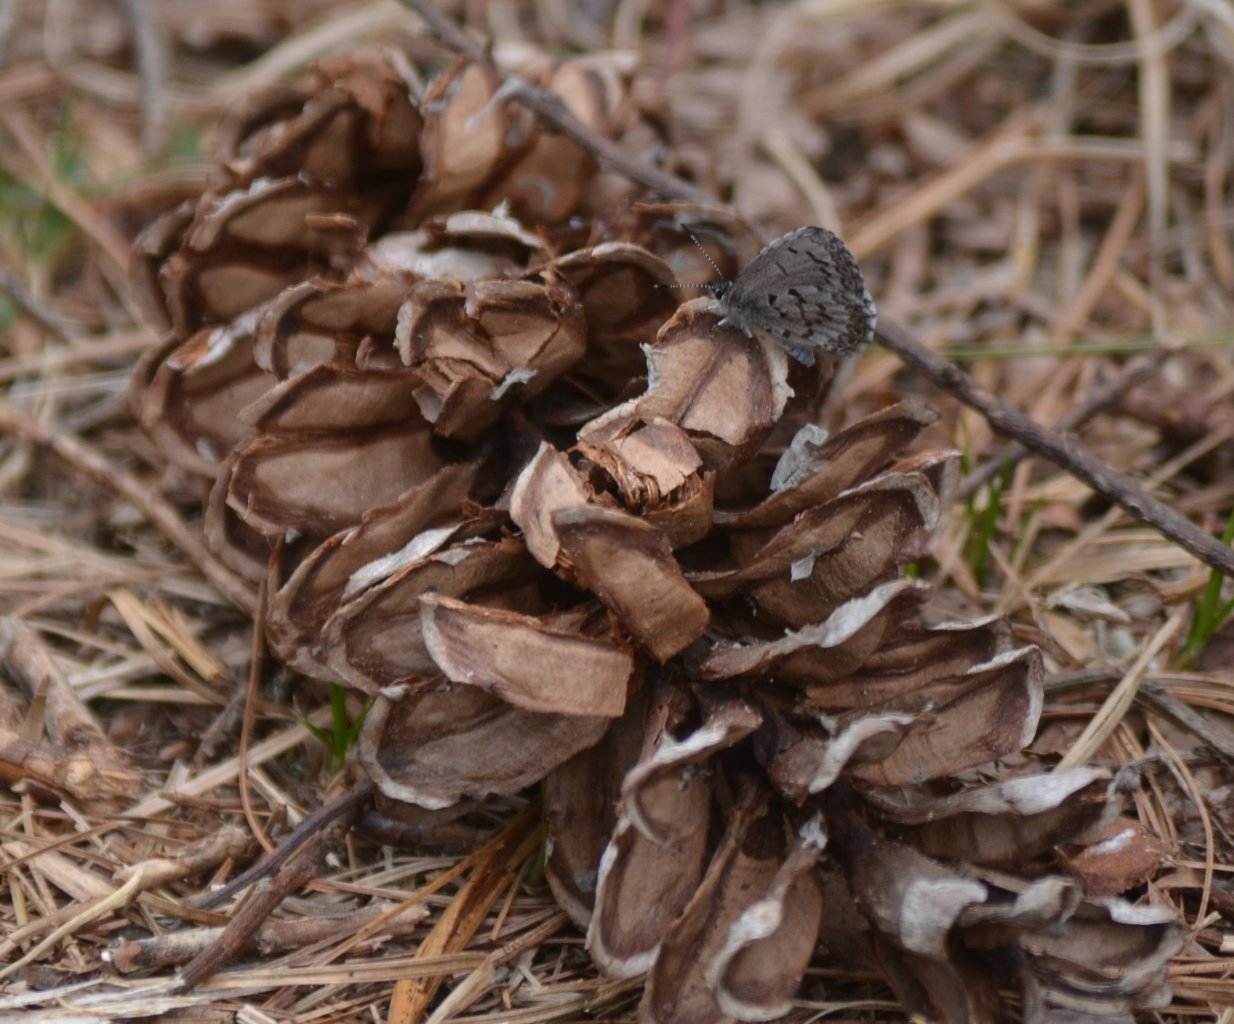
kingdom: Animalia
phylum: Arthropoda
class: Insecta
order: Lepidoptera
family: Lycaenidae
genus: Celastrina
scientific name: Celastrina lucia
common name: Northern Spring Azure
